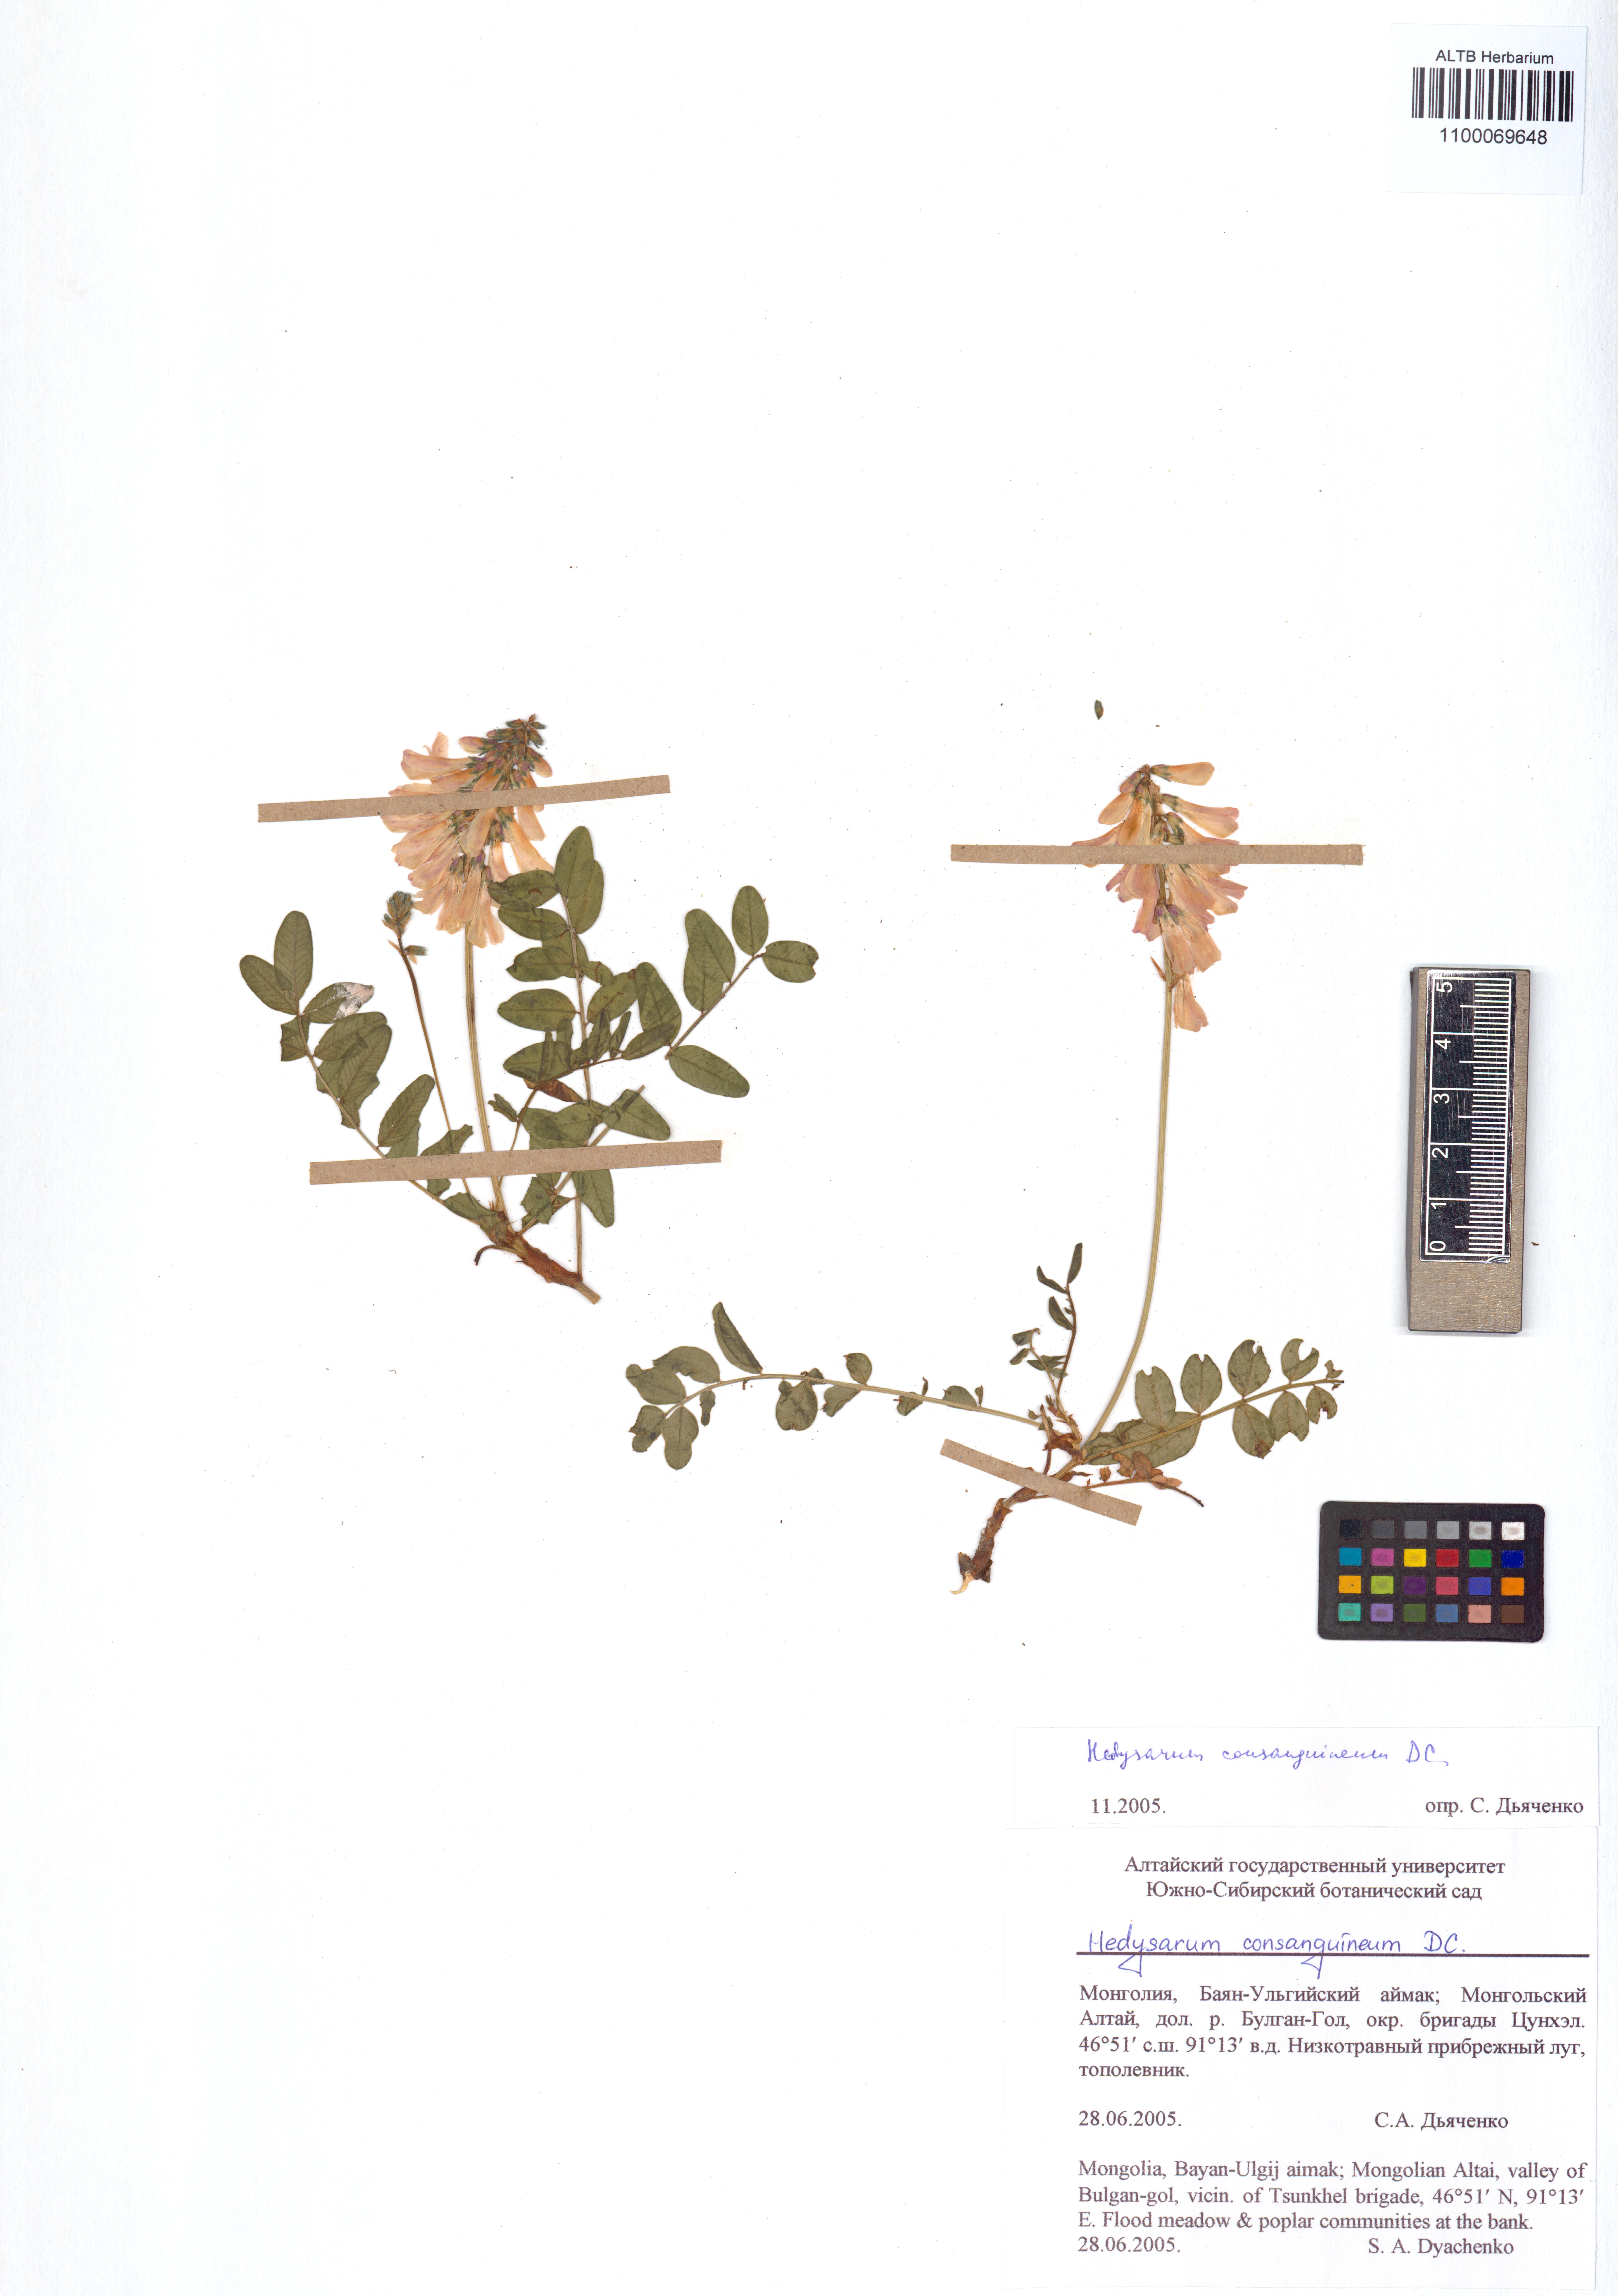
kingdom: Plantae
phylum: Tracheophyta
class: Magnoliopsida
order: Fabales
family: Fabaceae
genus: Hedysarum
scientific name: Hedysarum consanguineum
